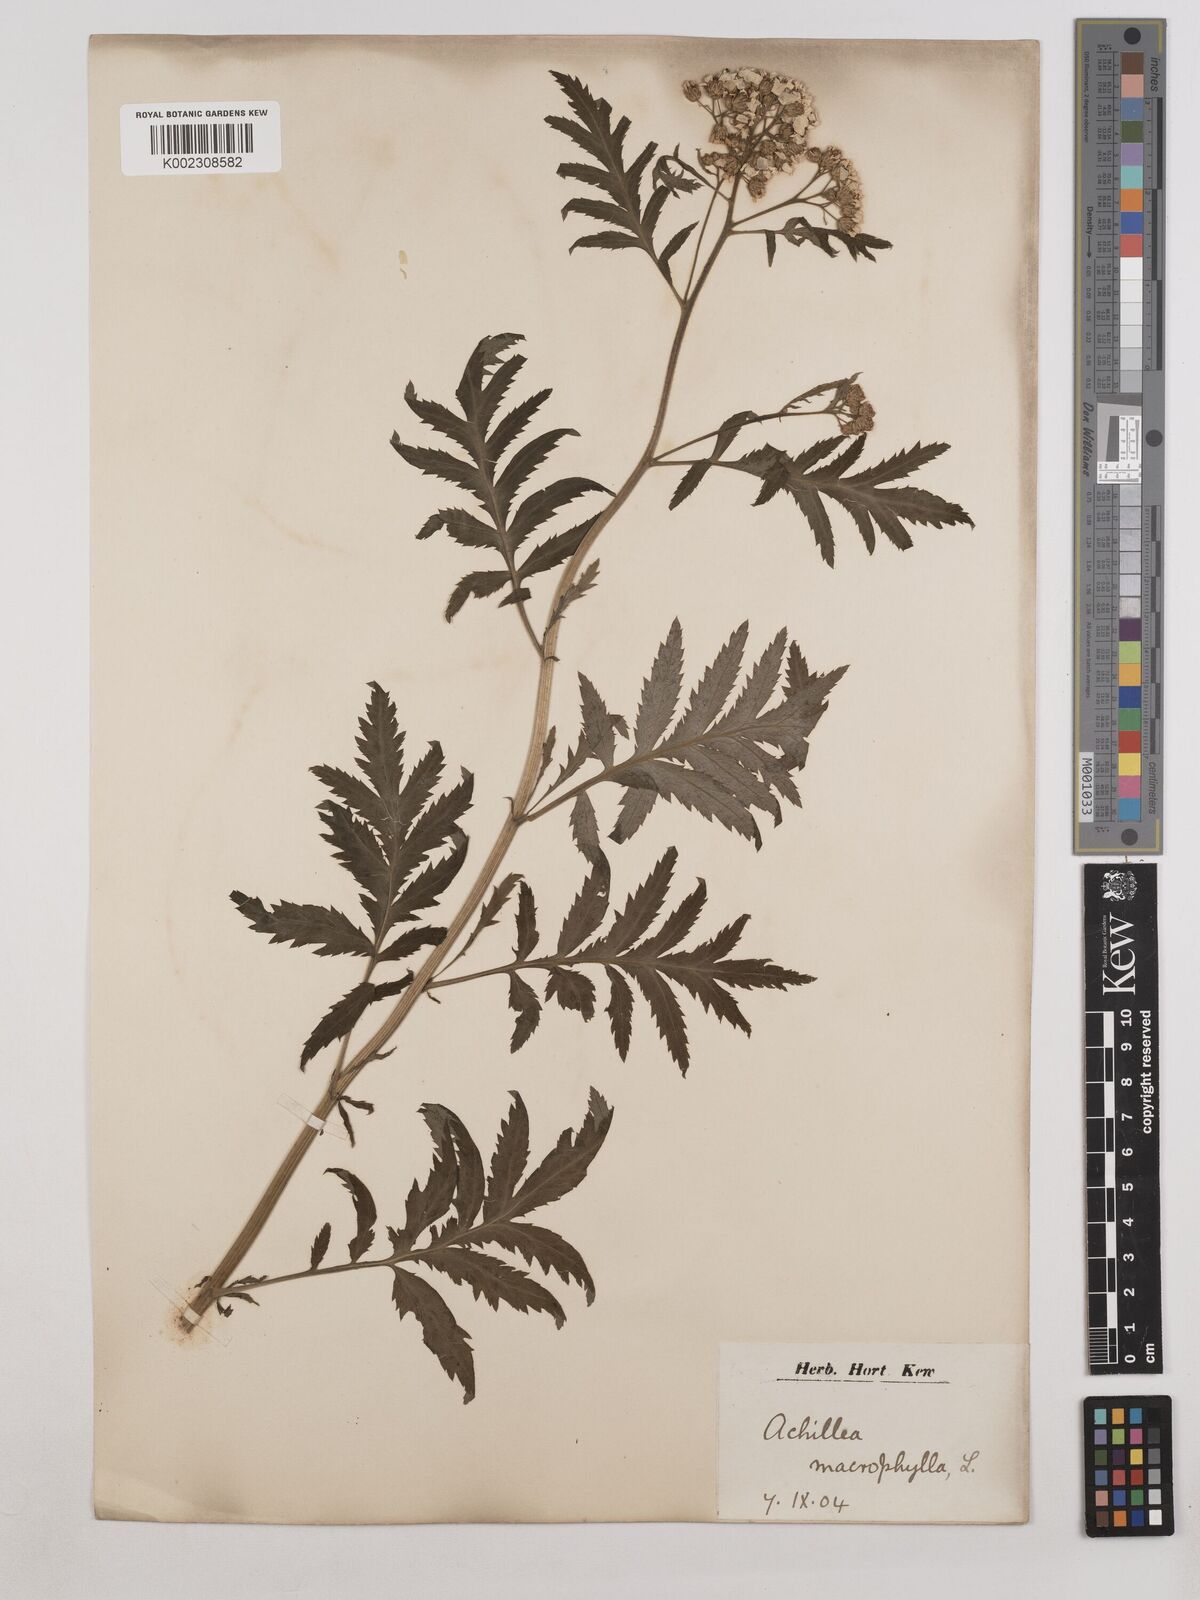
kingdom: Plantae
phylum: Tracheophyta
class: Magnoliopsida
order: Asterales
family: Asteraceae
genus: Achillea
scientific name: Achillea macrophylla
